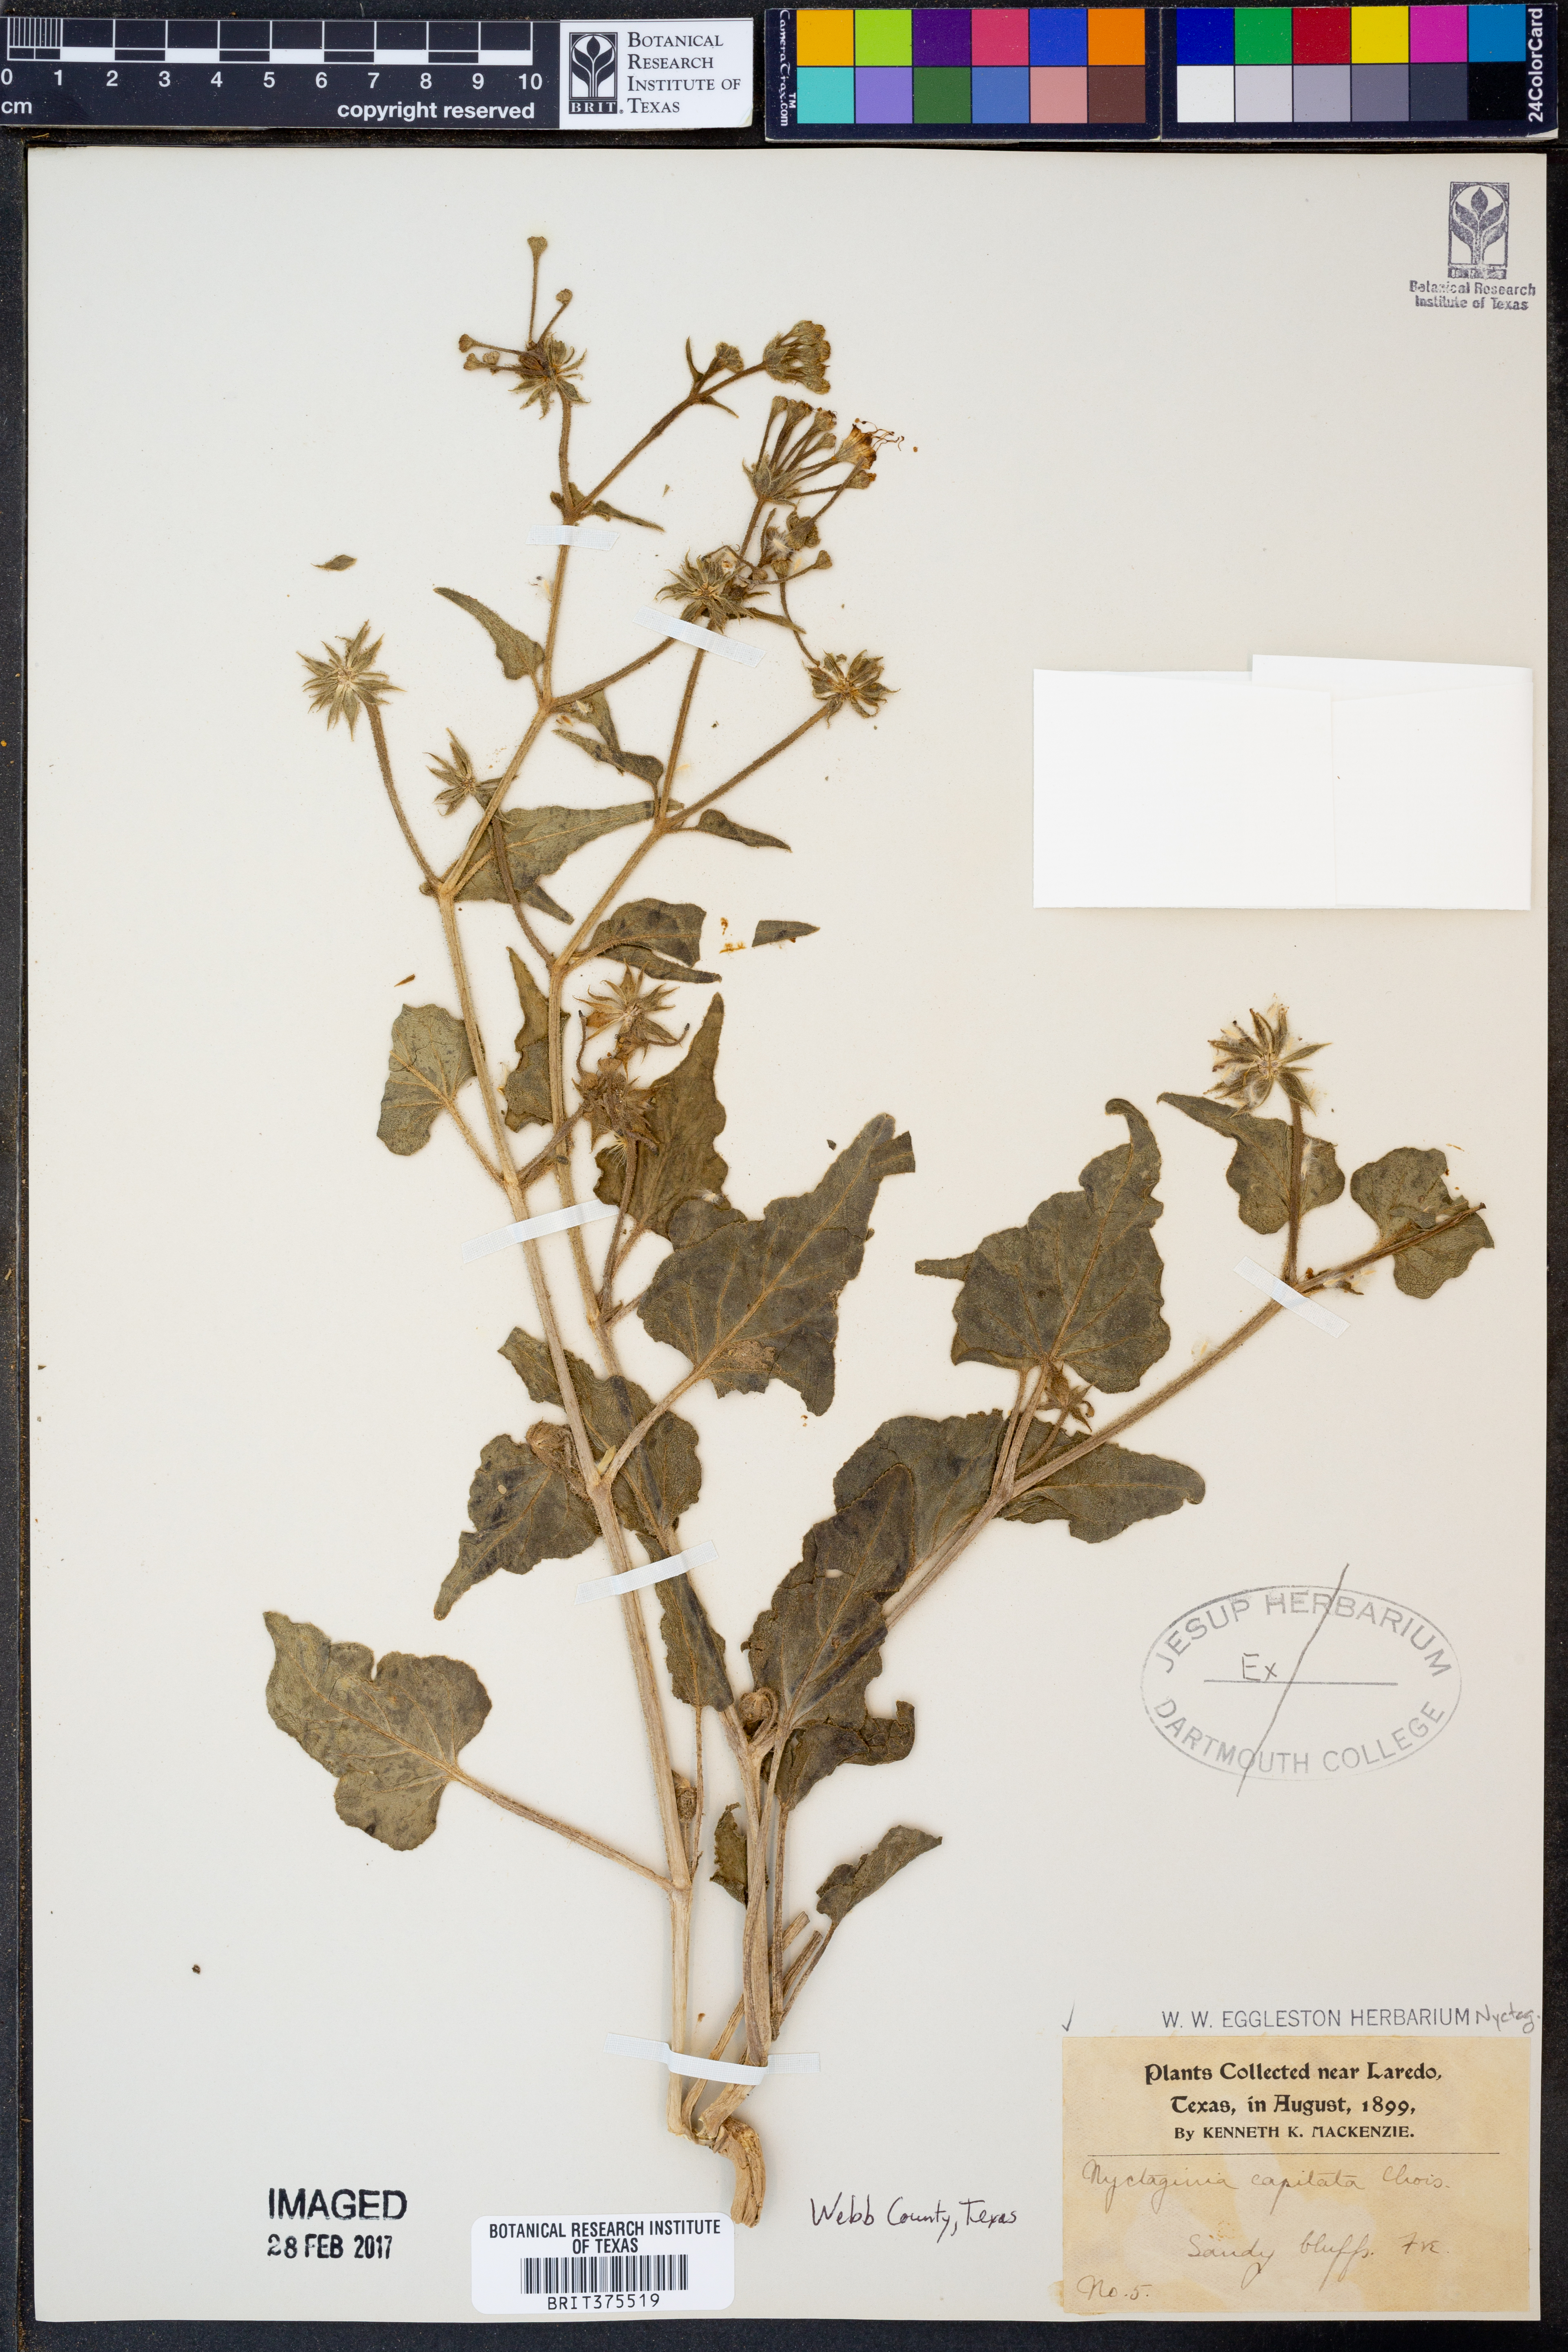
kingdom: Plantae
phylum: Tracheophyta
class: Magnoliopsida
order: Caryophyllales
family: Nyctaginaceae
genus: Nyctaginia
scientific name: Nyctaginia capitata
